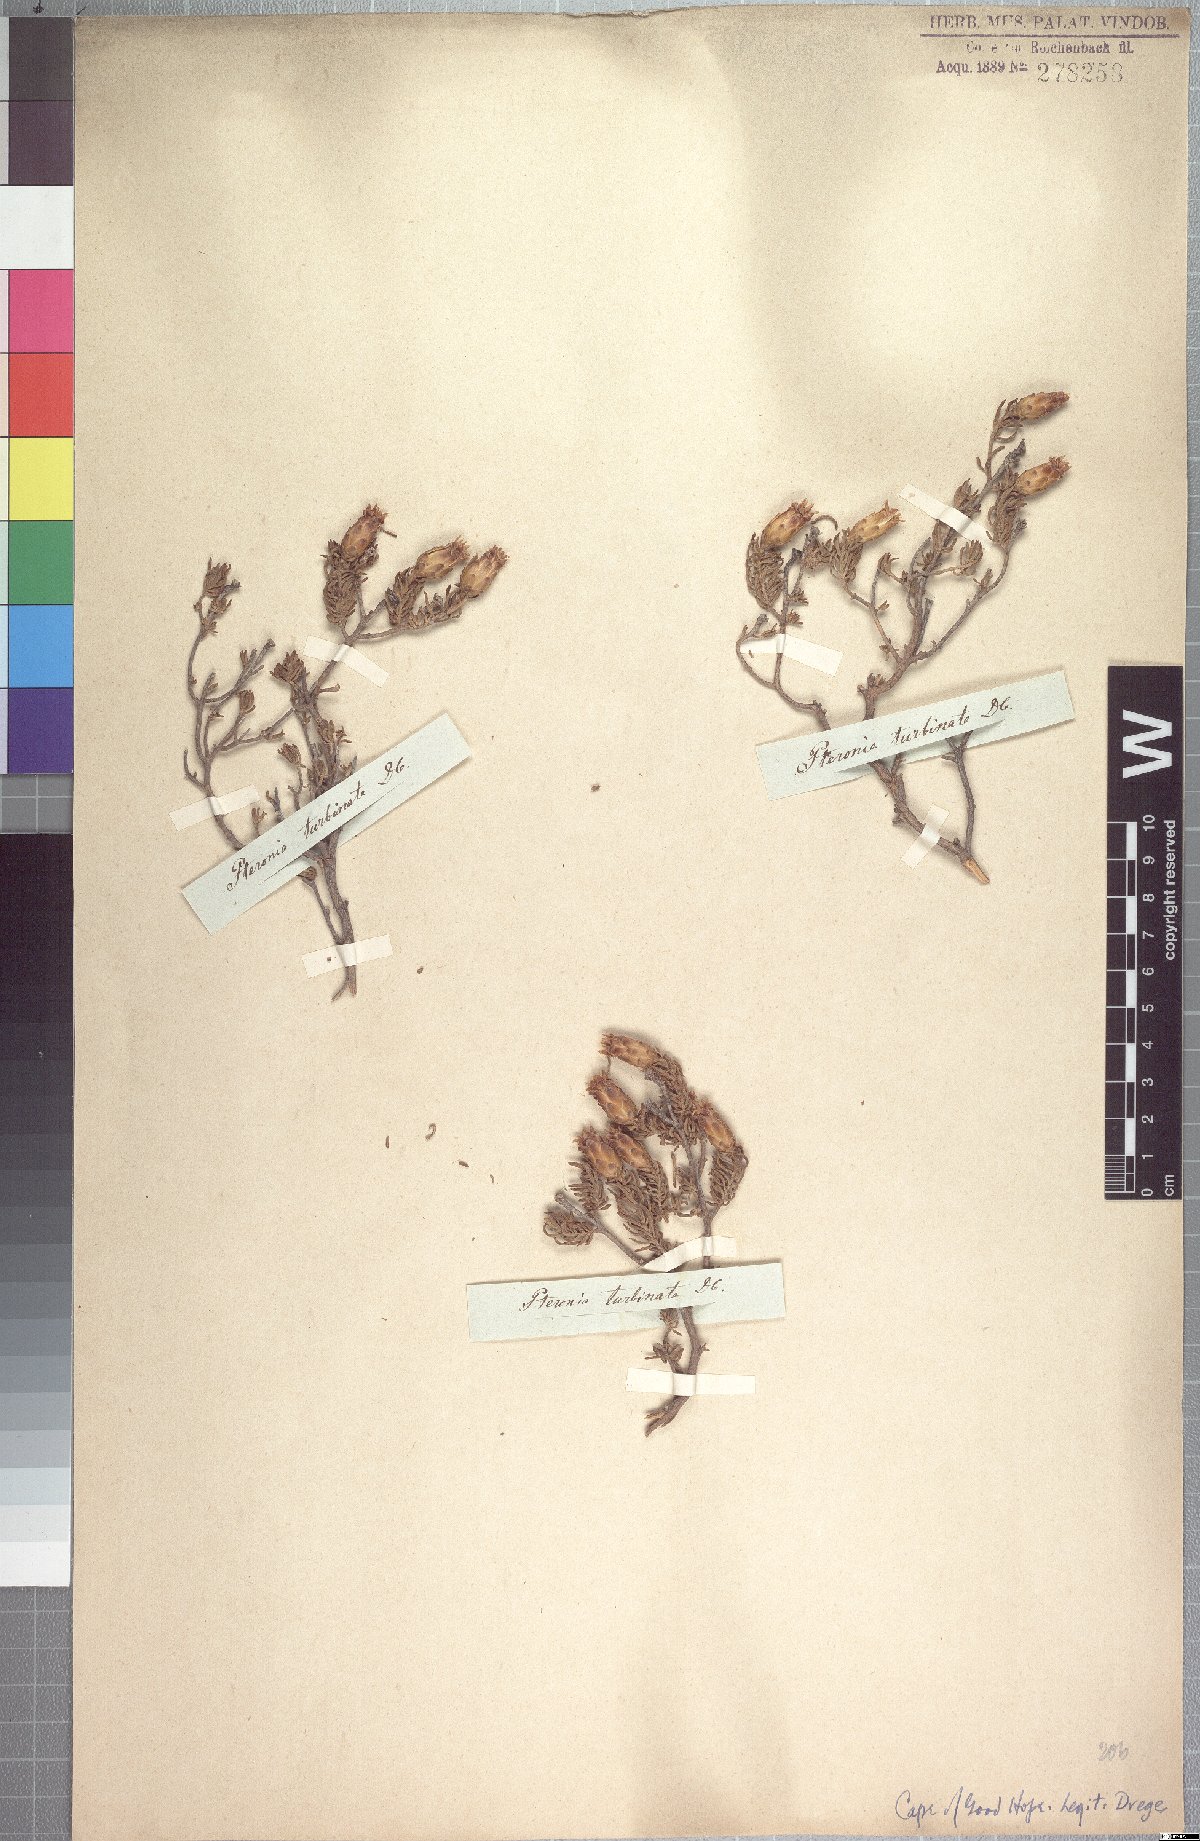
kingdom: Plantae
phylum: Tracheophyta
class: Magnoliopsida
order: Asterales
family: Asteraceae
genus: Pteronia
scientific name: Pteronia ciliata
